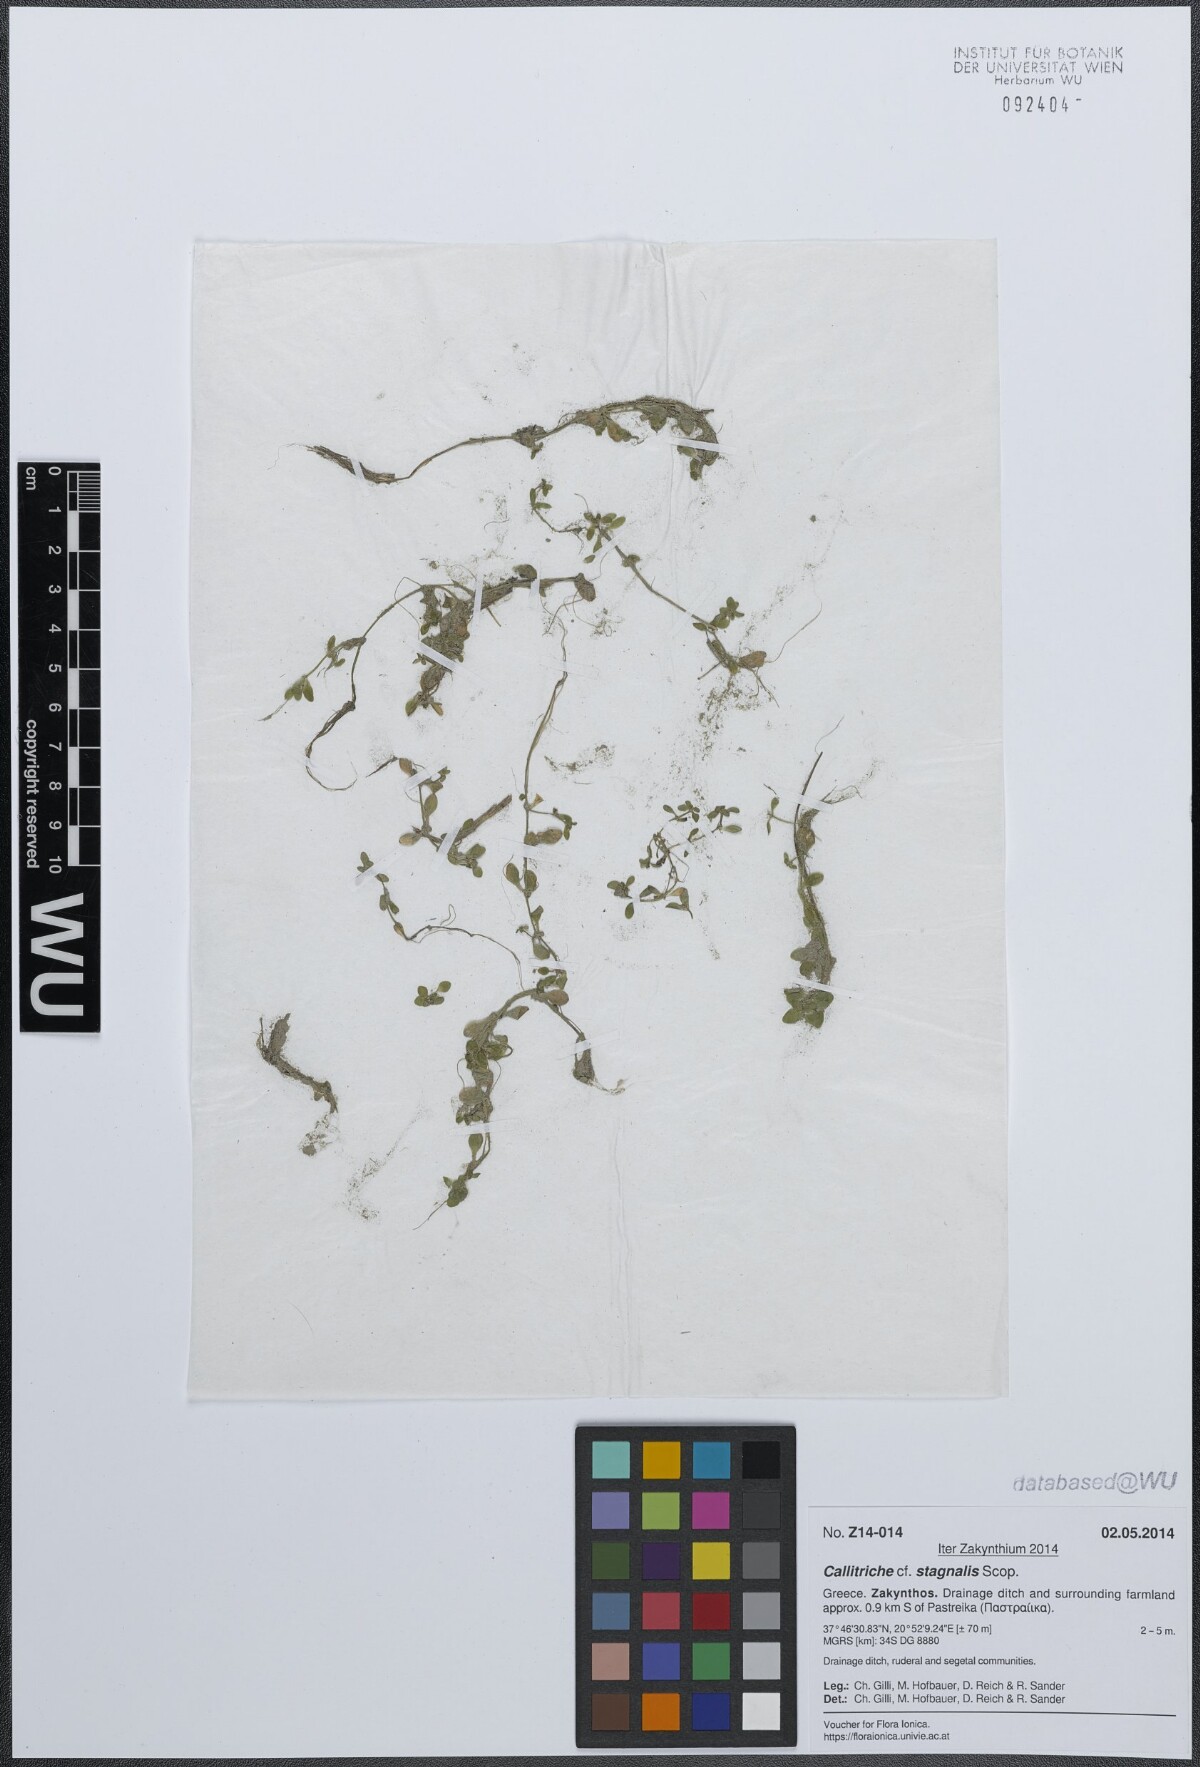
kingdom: Plantae
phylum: Tracheophyta
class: Magnoliopsida
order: Lamiales
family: Plantaginaceae
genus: Callitriche
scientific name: Callitriche stagnalis
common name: Common water-starwort
